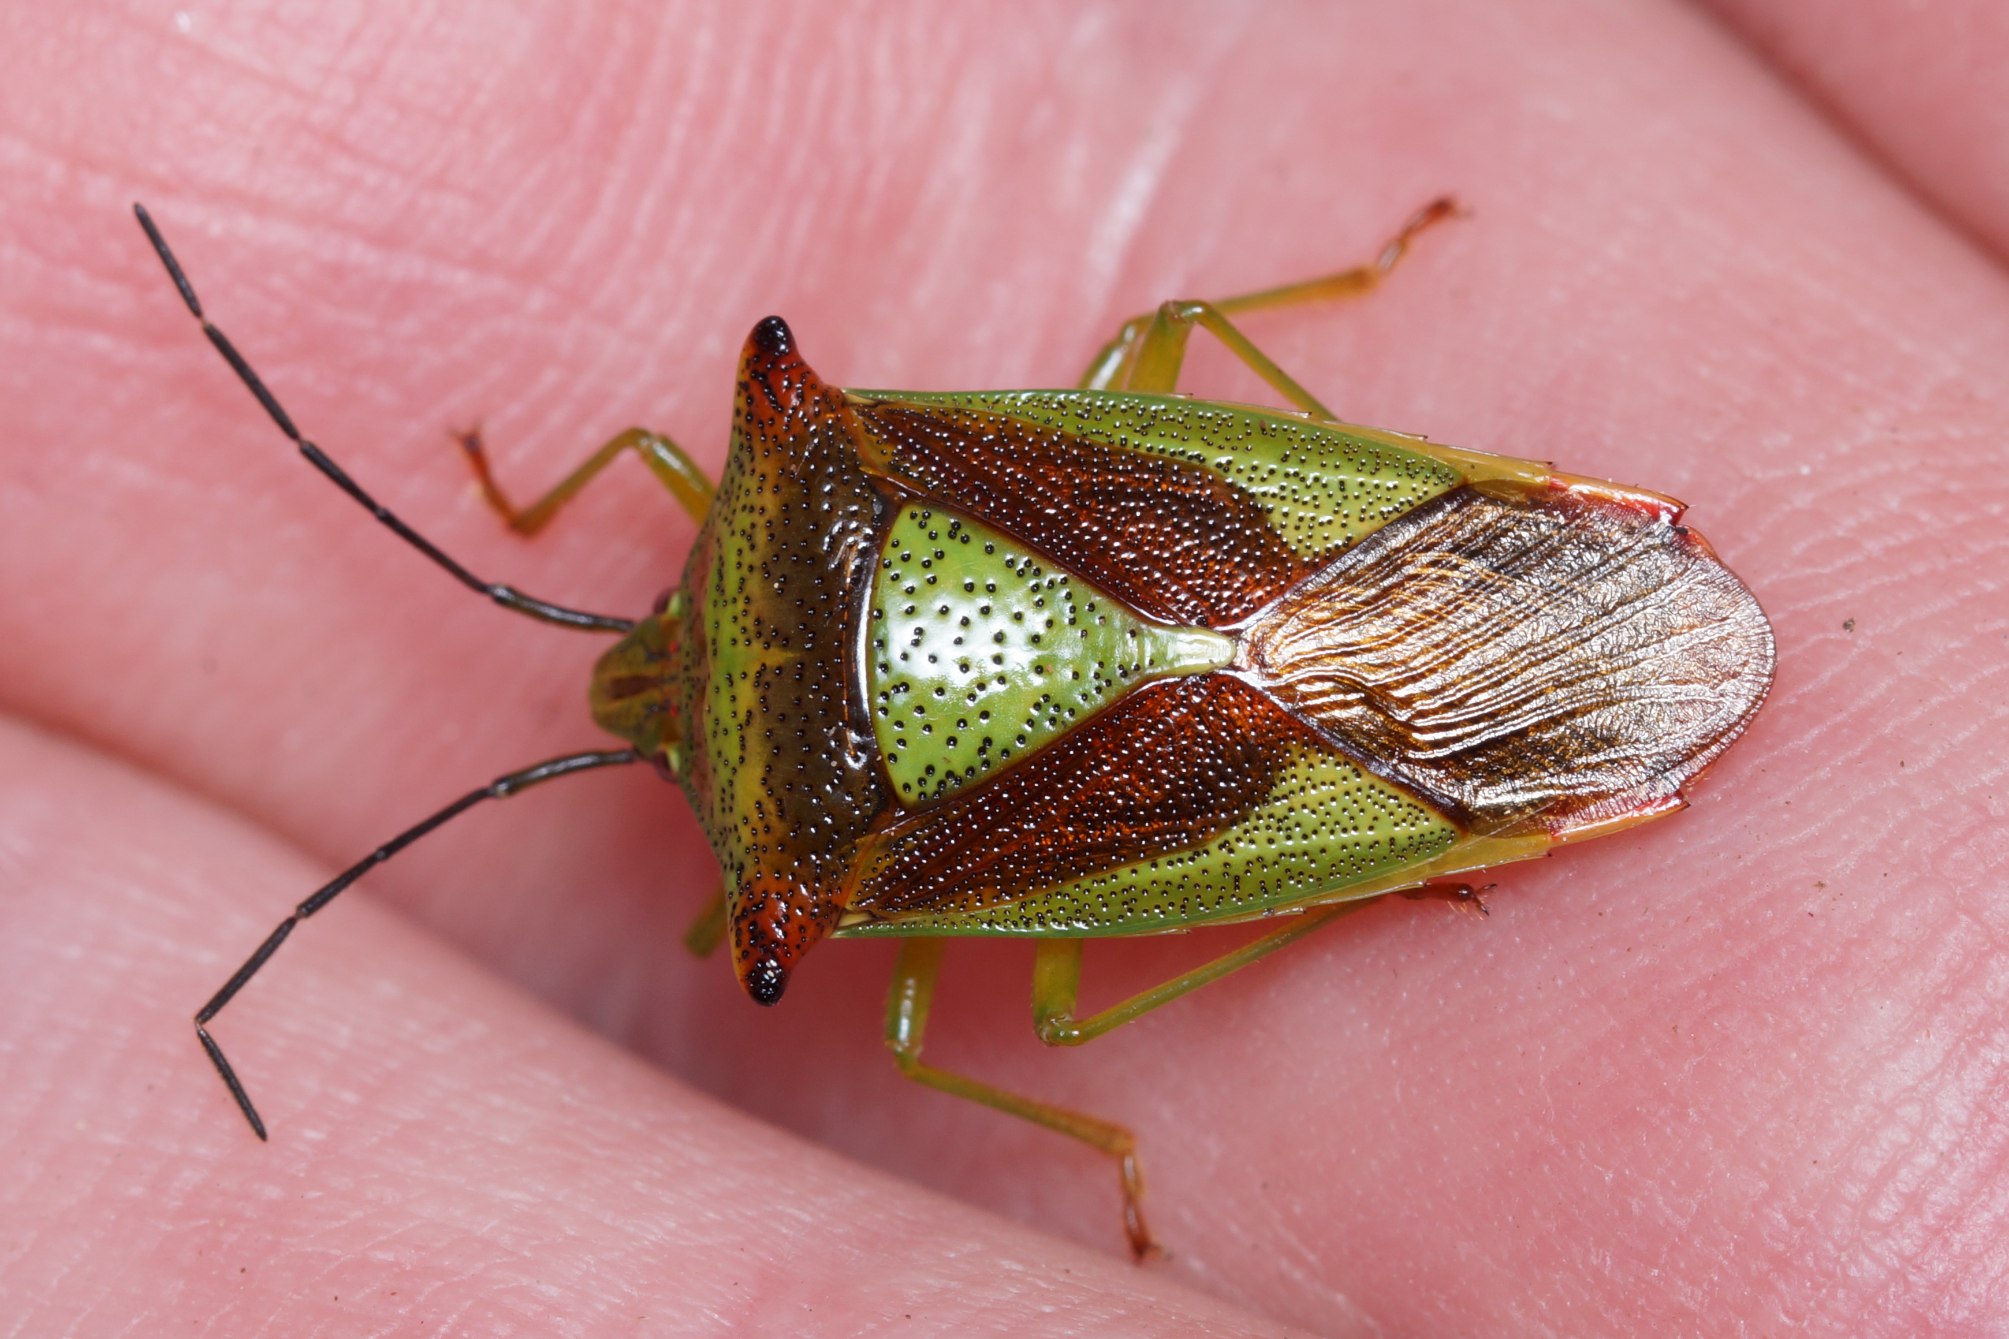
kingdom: Animalia
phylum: Arthropoda
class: Insecta
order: Hemiptera
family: Acanthosomatidae
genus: Acanthosoma
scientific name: Acanthosoma haemorrhoidale
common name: Stor løvtæge
